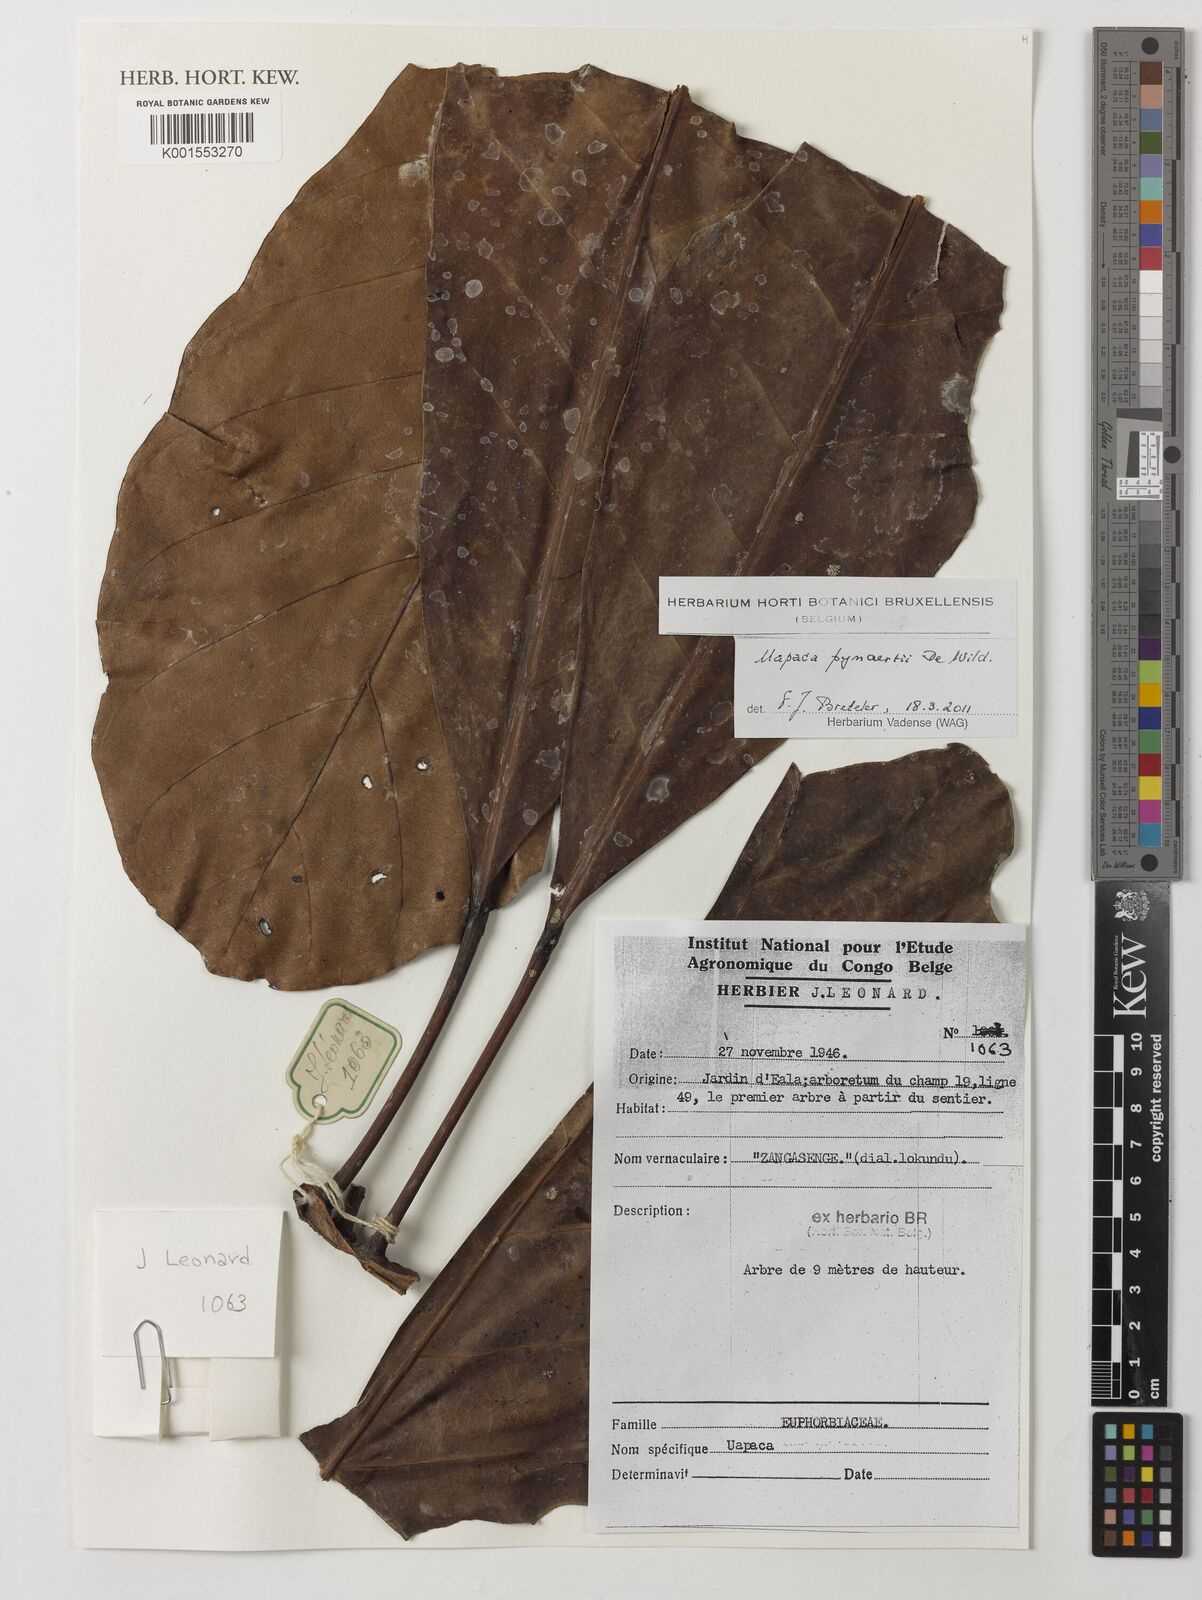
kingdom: Plantae
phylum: Tracheophyta
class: Magnoliopsida
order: Malpighiales
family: Phyllanthaceae
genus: Uapaca
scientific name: Uapaca pynaertii
